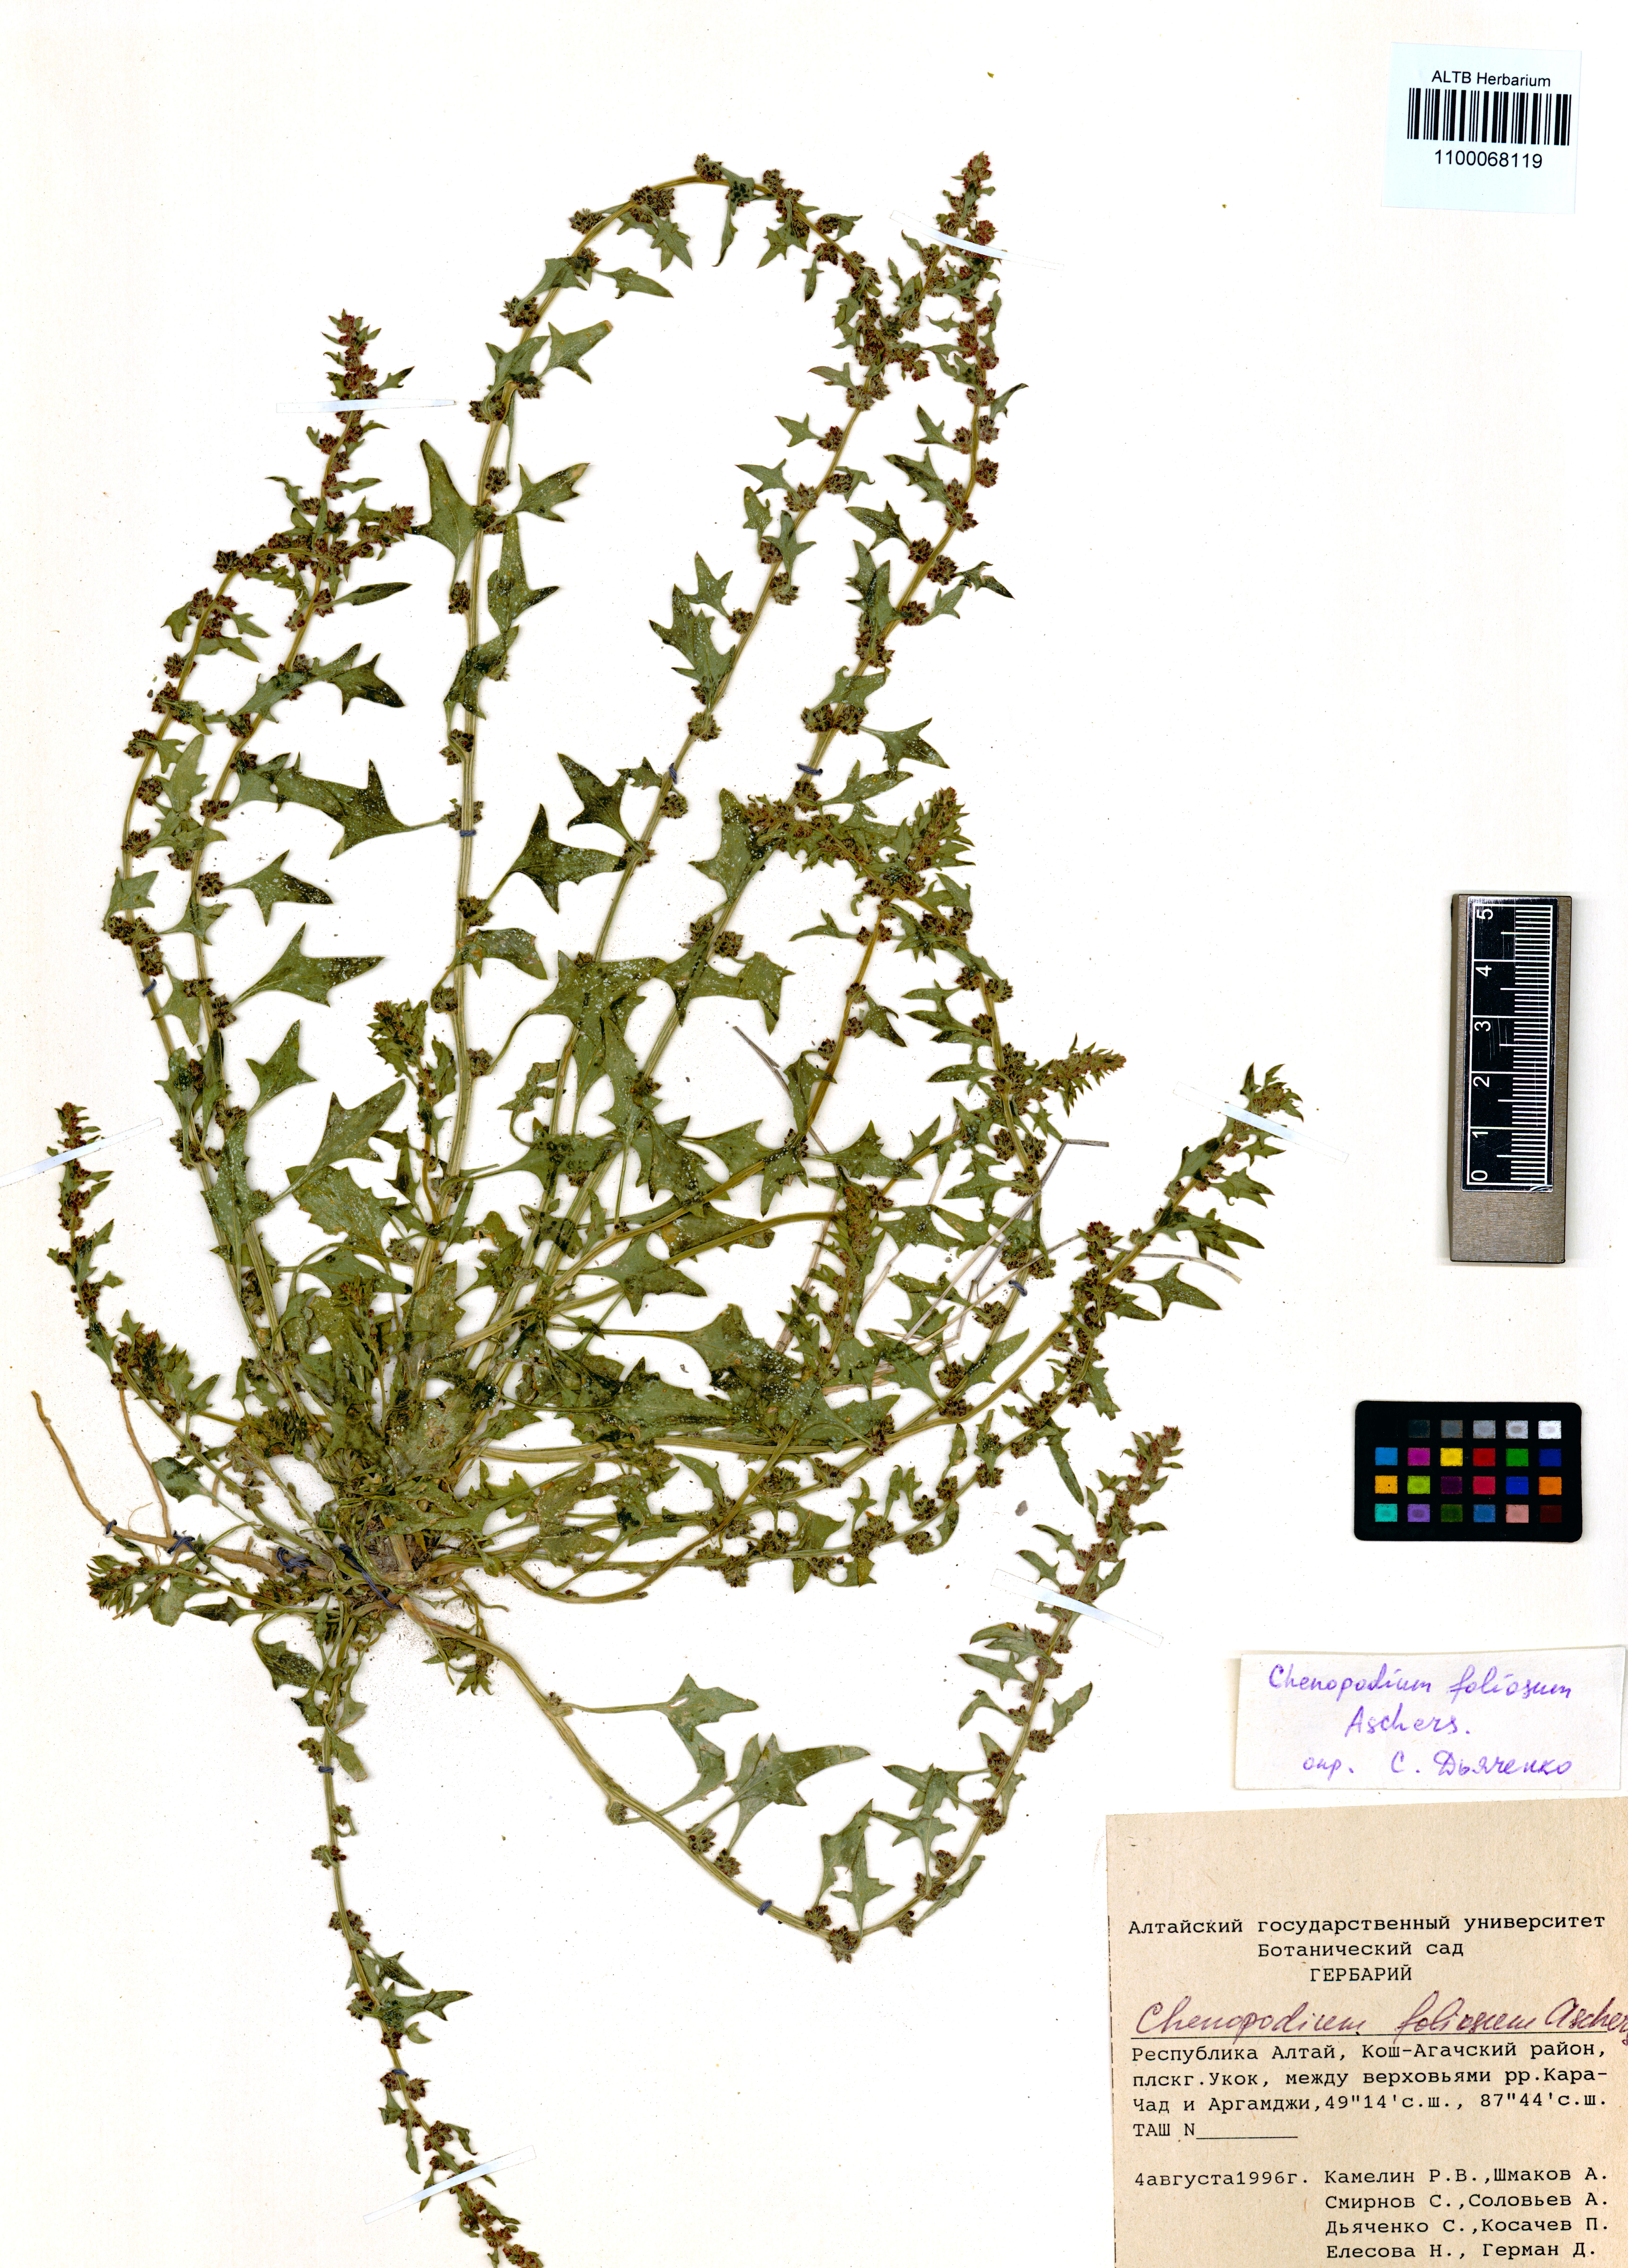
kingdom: Plantae
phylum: Tracheophyta
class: Magnoliopsida
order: Caryophyllales
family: Amaranthaceae
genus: Blitum
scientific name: Blitum virgatum
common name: Strawberry goosefoot
